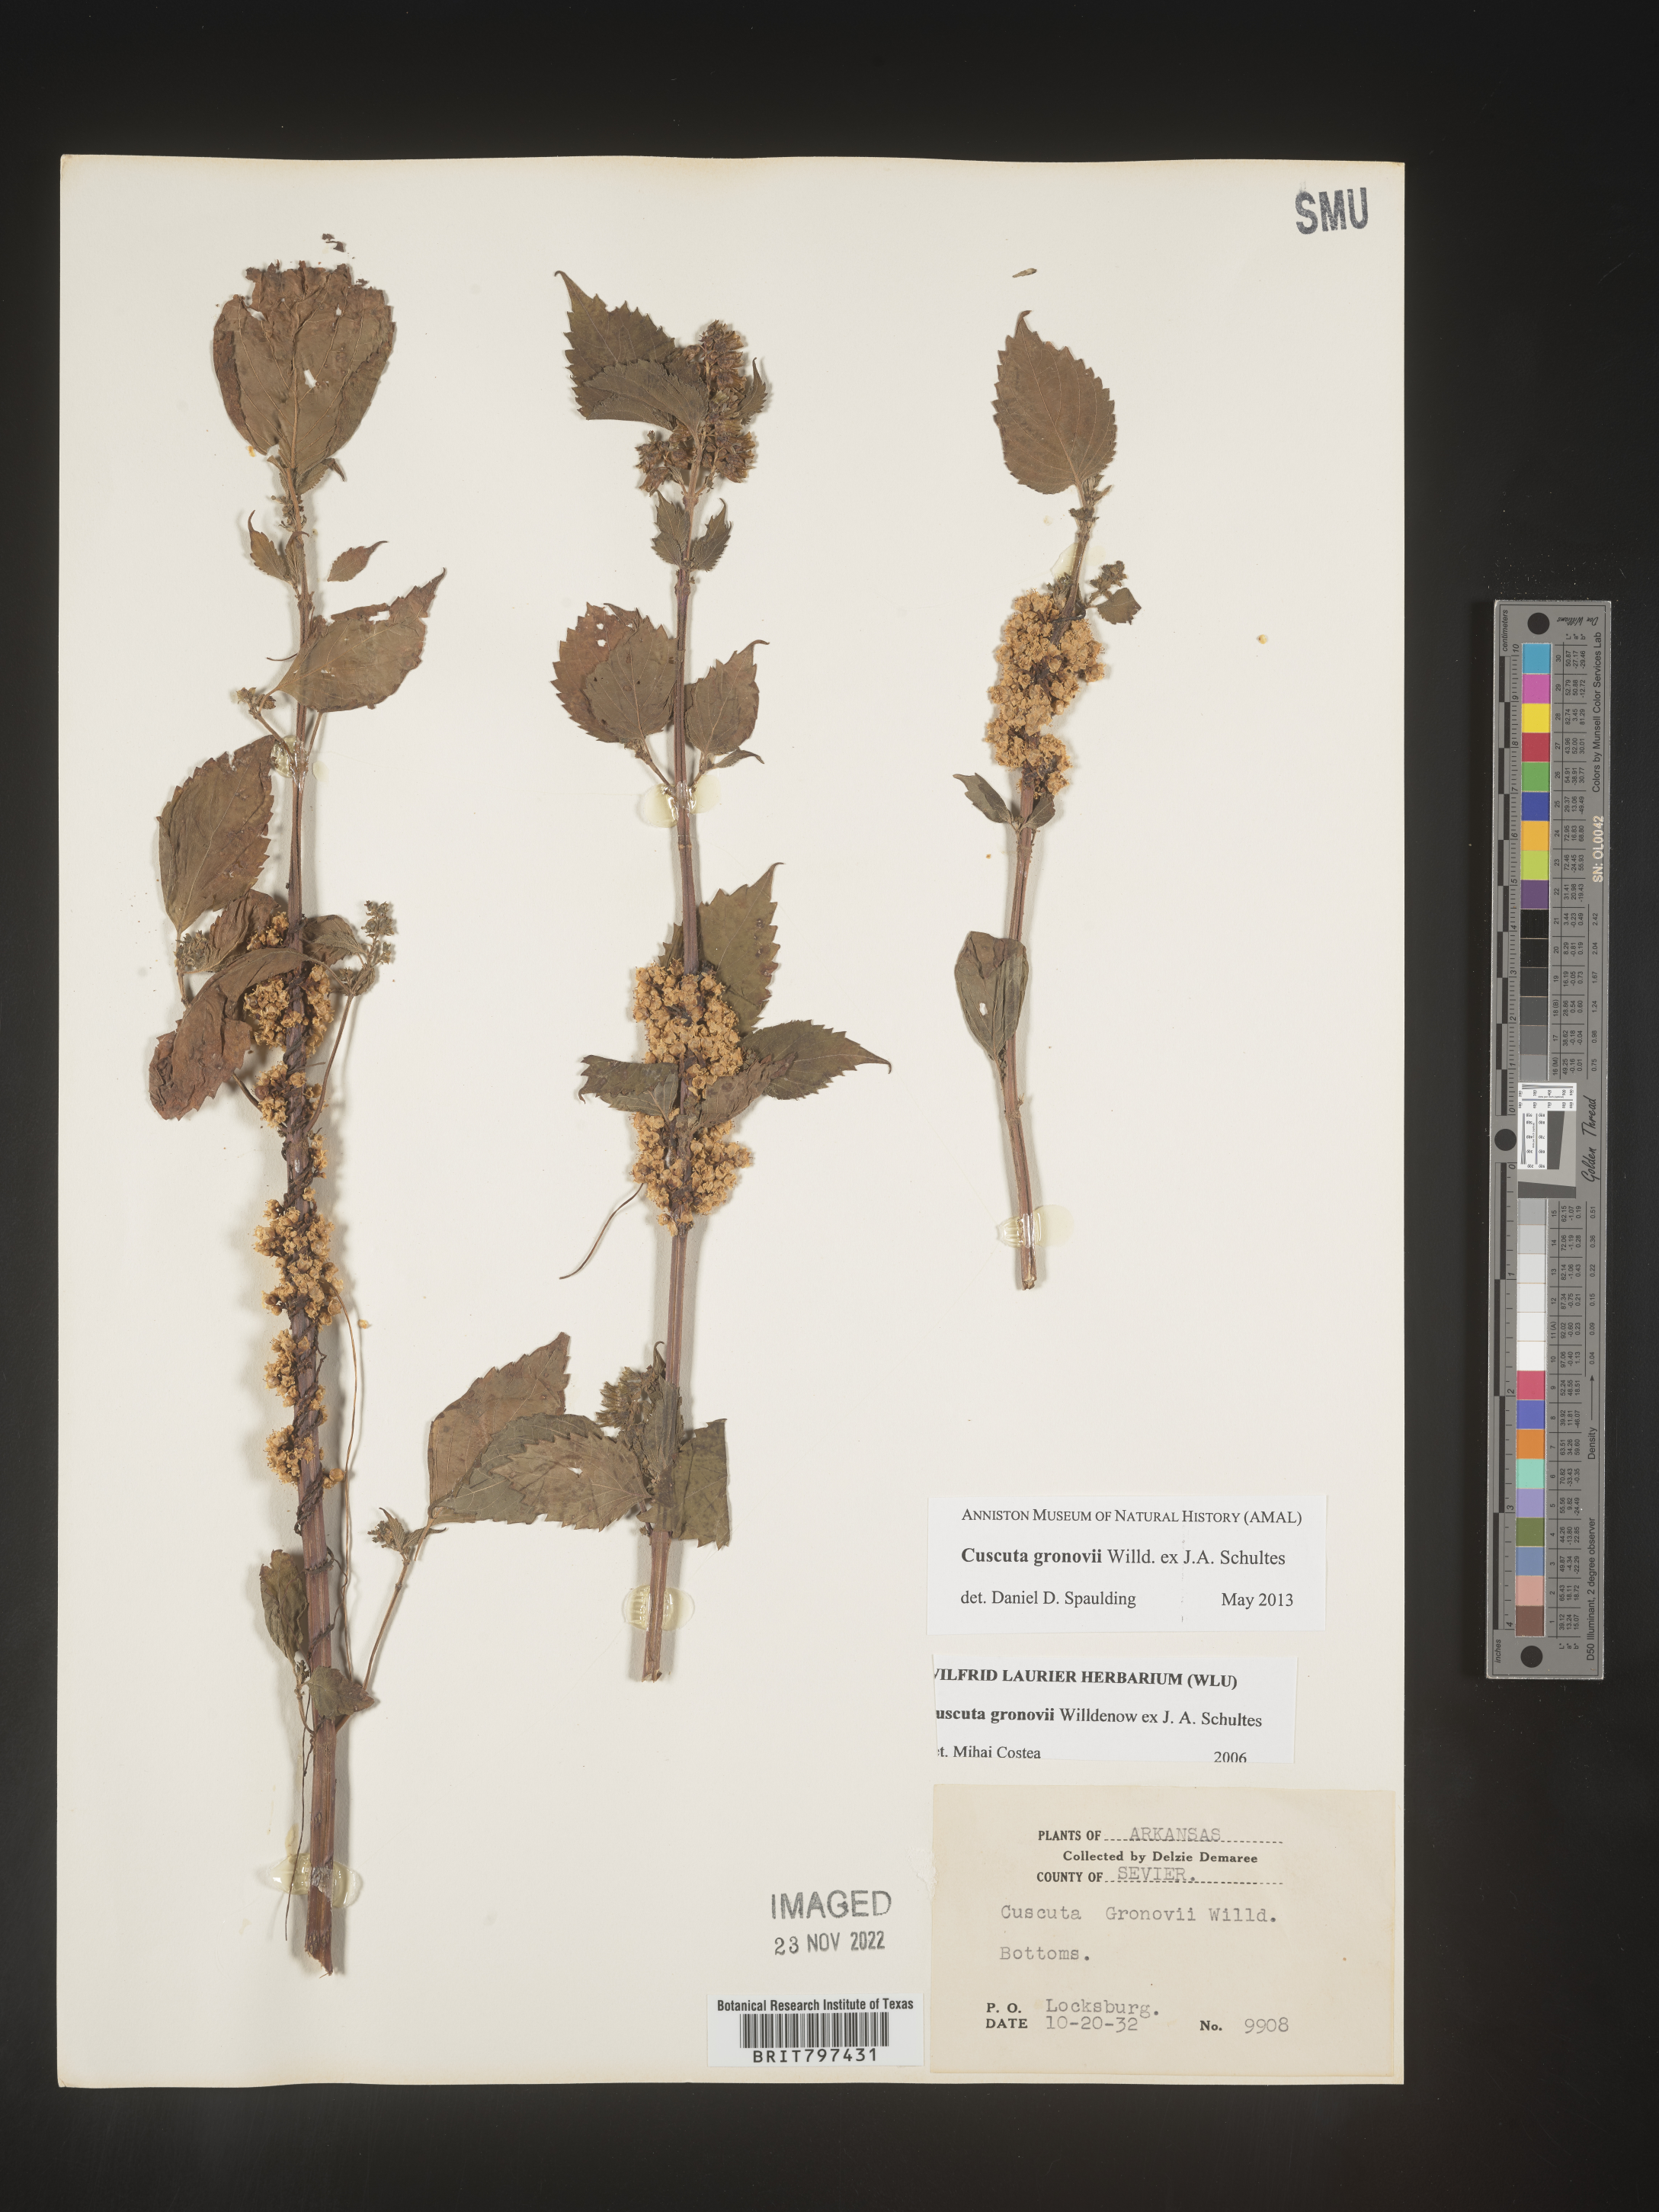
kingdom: Plantae
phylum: Tracheophyta
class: Magnoliopsida
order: Solanales
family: Convolvulaceae
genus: Cuscuta
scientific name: Cuscuta gronovii
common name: Common dodder
